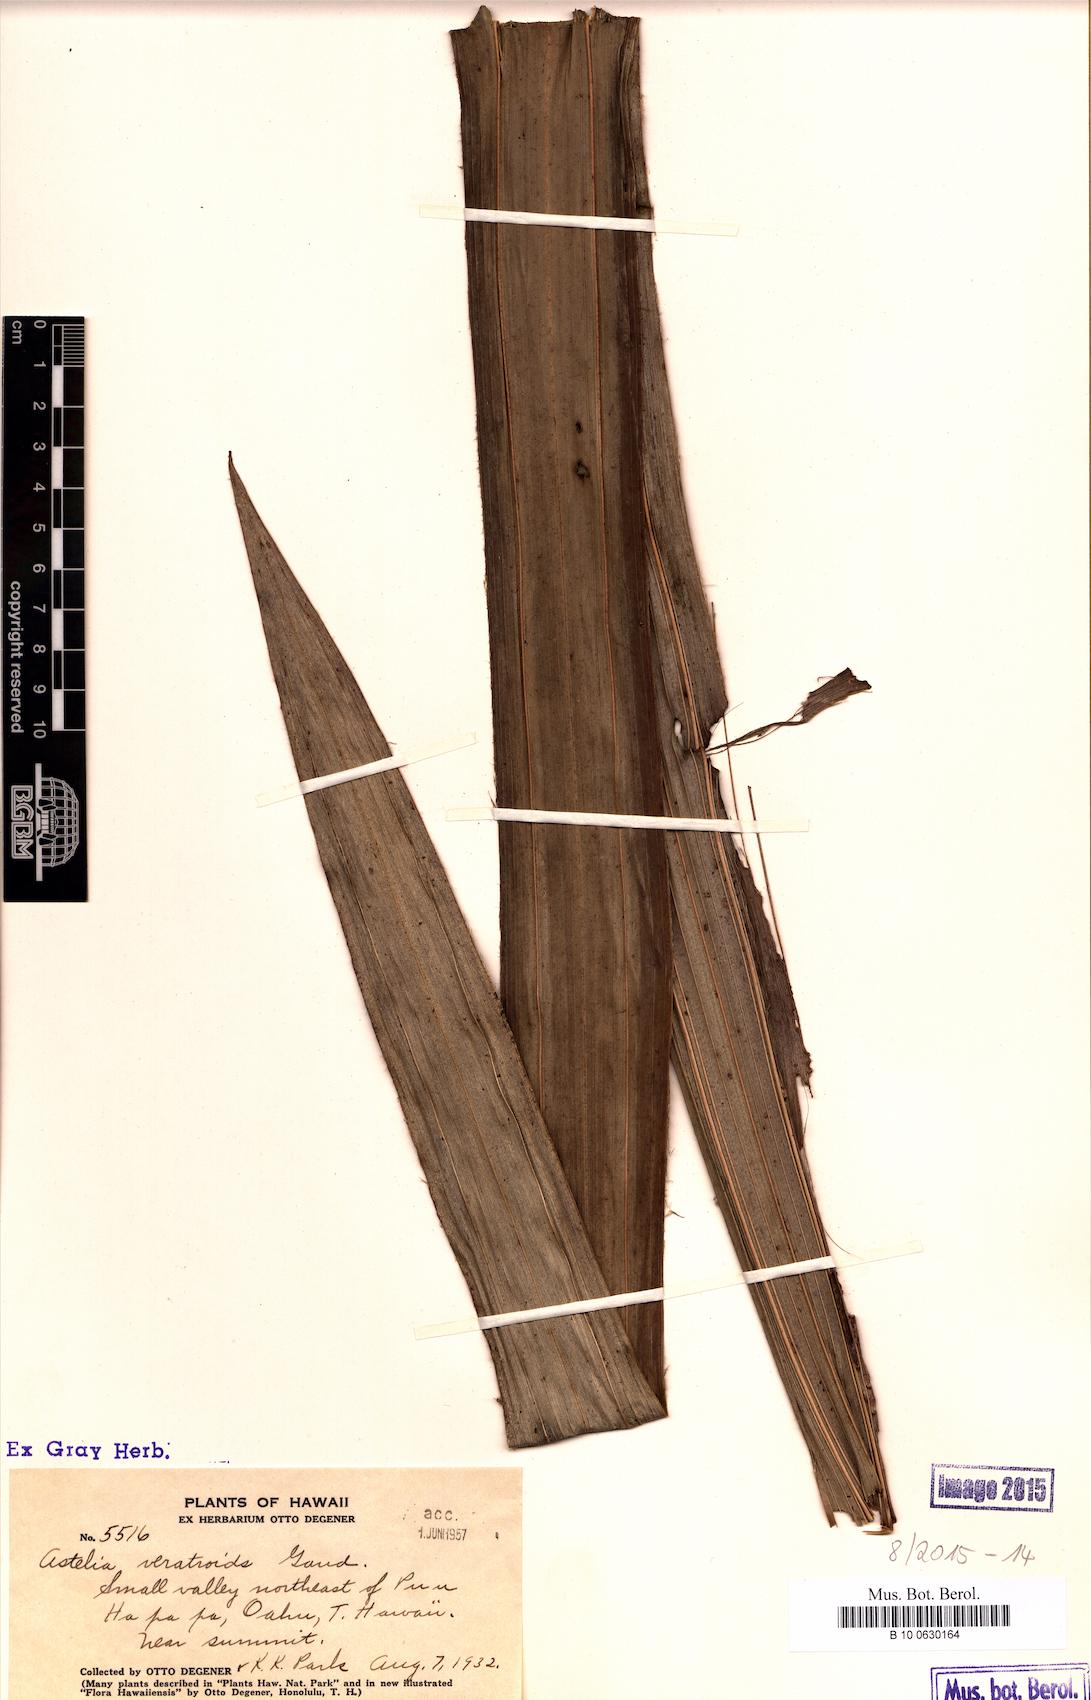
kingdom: Plantae
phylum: Tracheophyta
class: Liliopsida
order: Asparagales
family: Asteliaceae
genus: Astelia
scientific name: Astelia menziesiana
